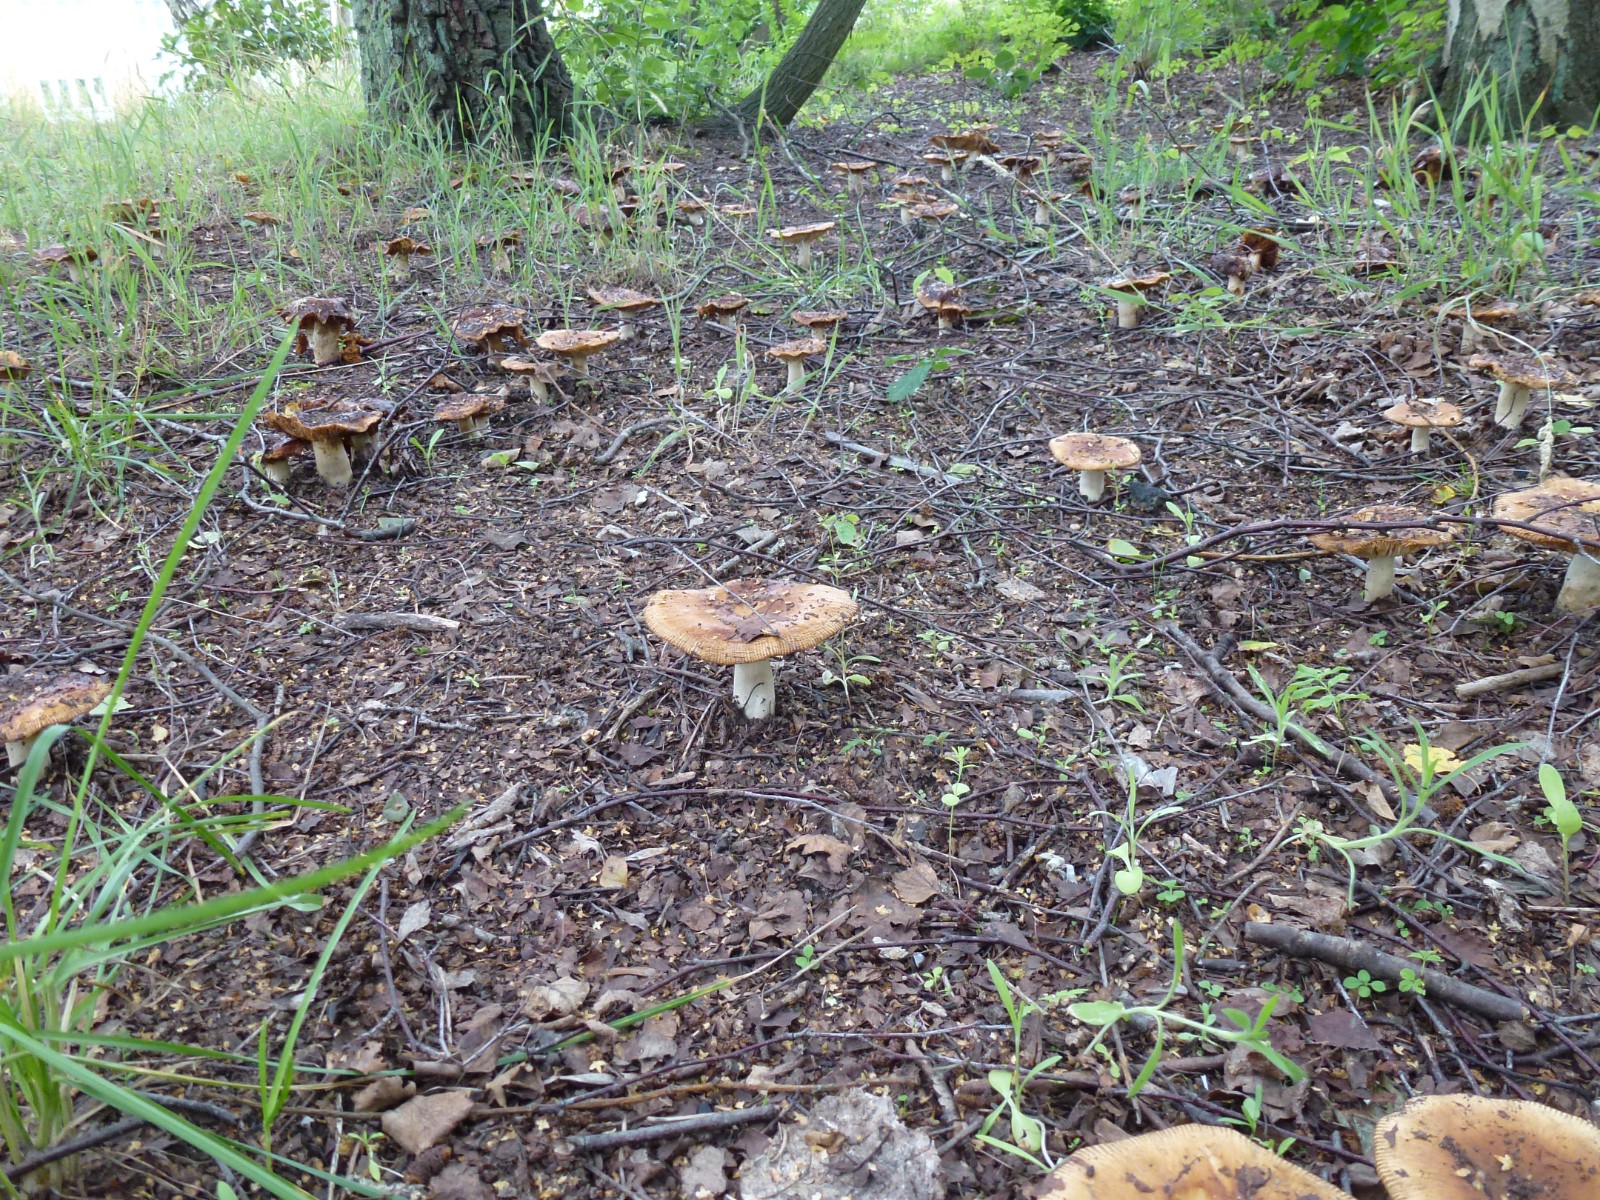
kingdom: Fungi
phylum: Basidiomycota
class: Agaricomycetes
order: Russulales
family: Russulaceae
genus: Russula
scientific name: Russula
